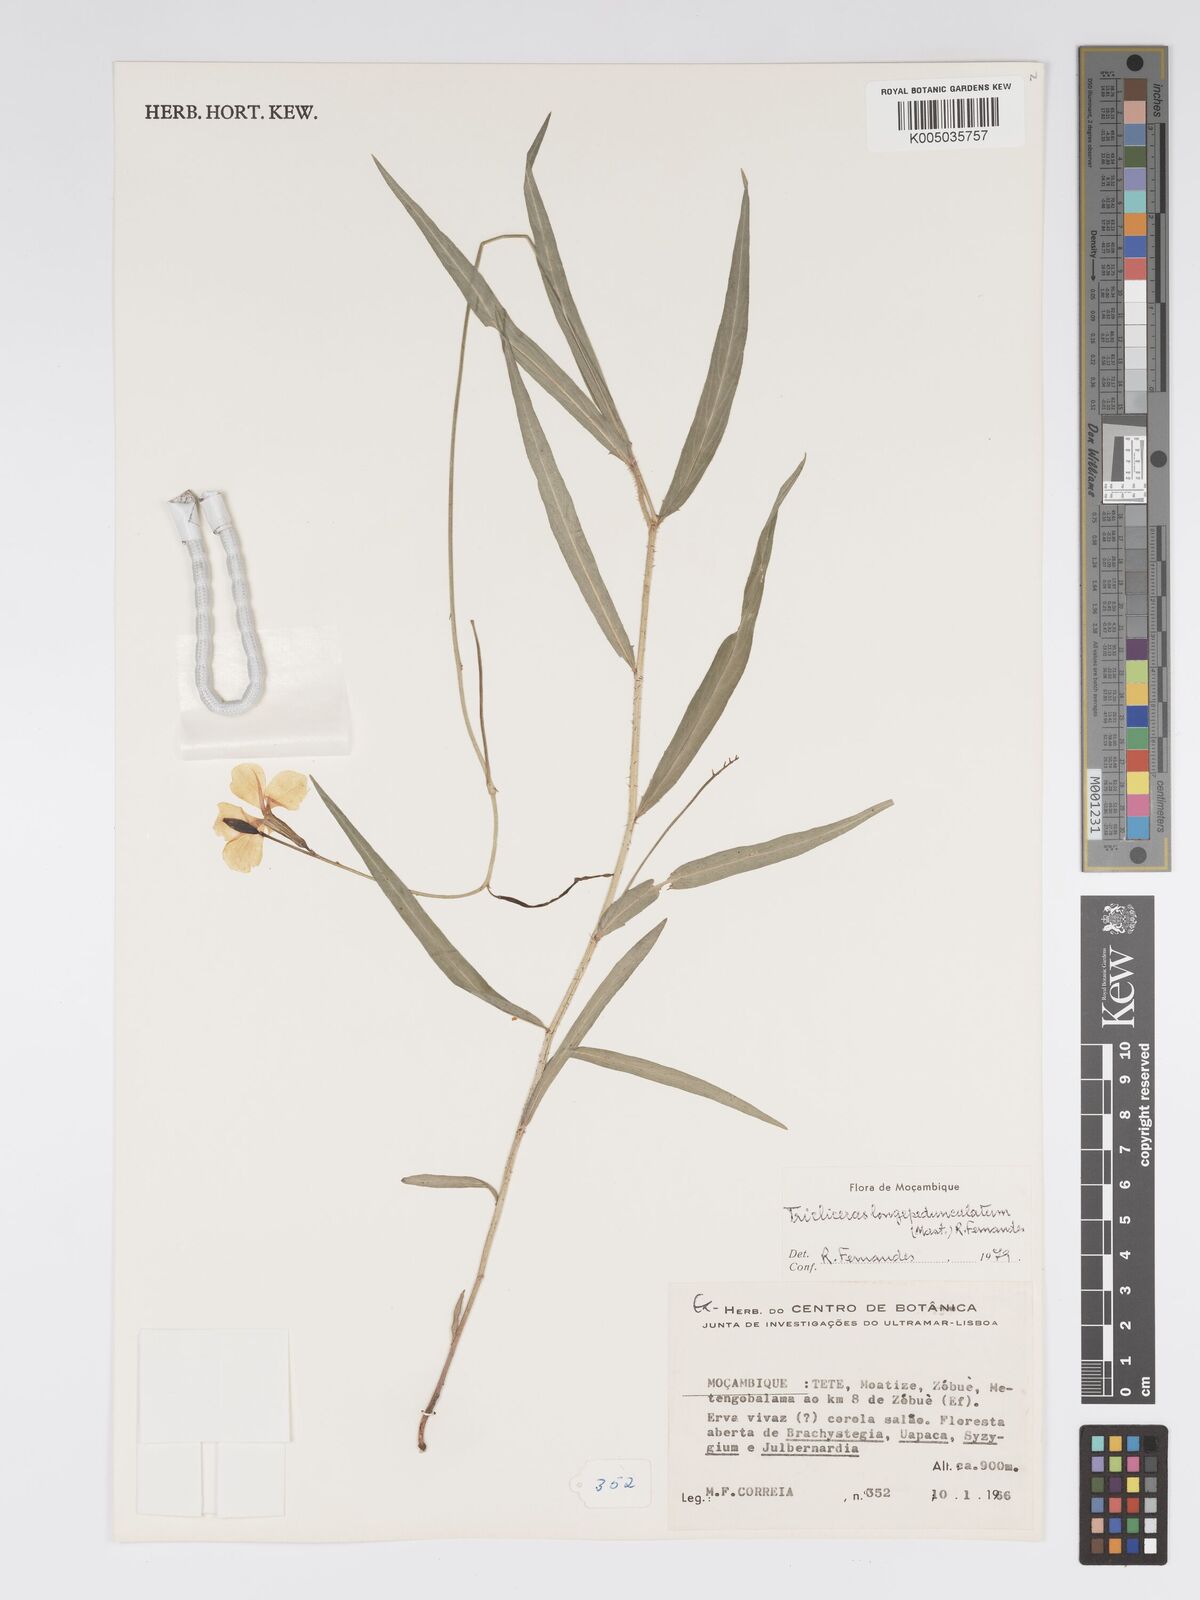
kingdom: Plantae
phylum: Tracheophyta
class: Magnoliopsida
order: Malpighiales
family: Turneraceae
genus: Tricliceras
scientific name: Tricliceras longepedunculatum
